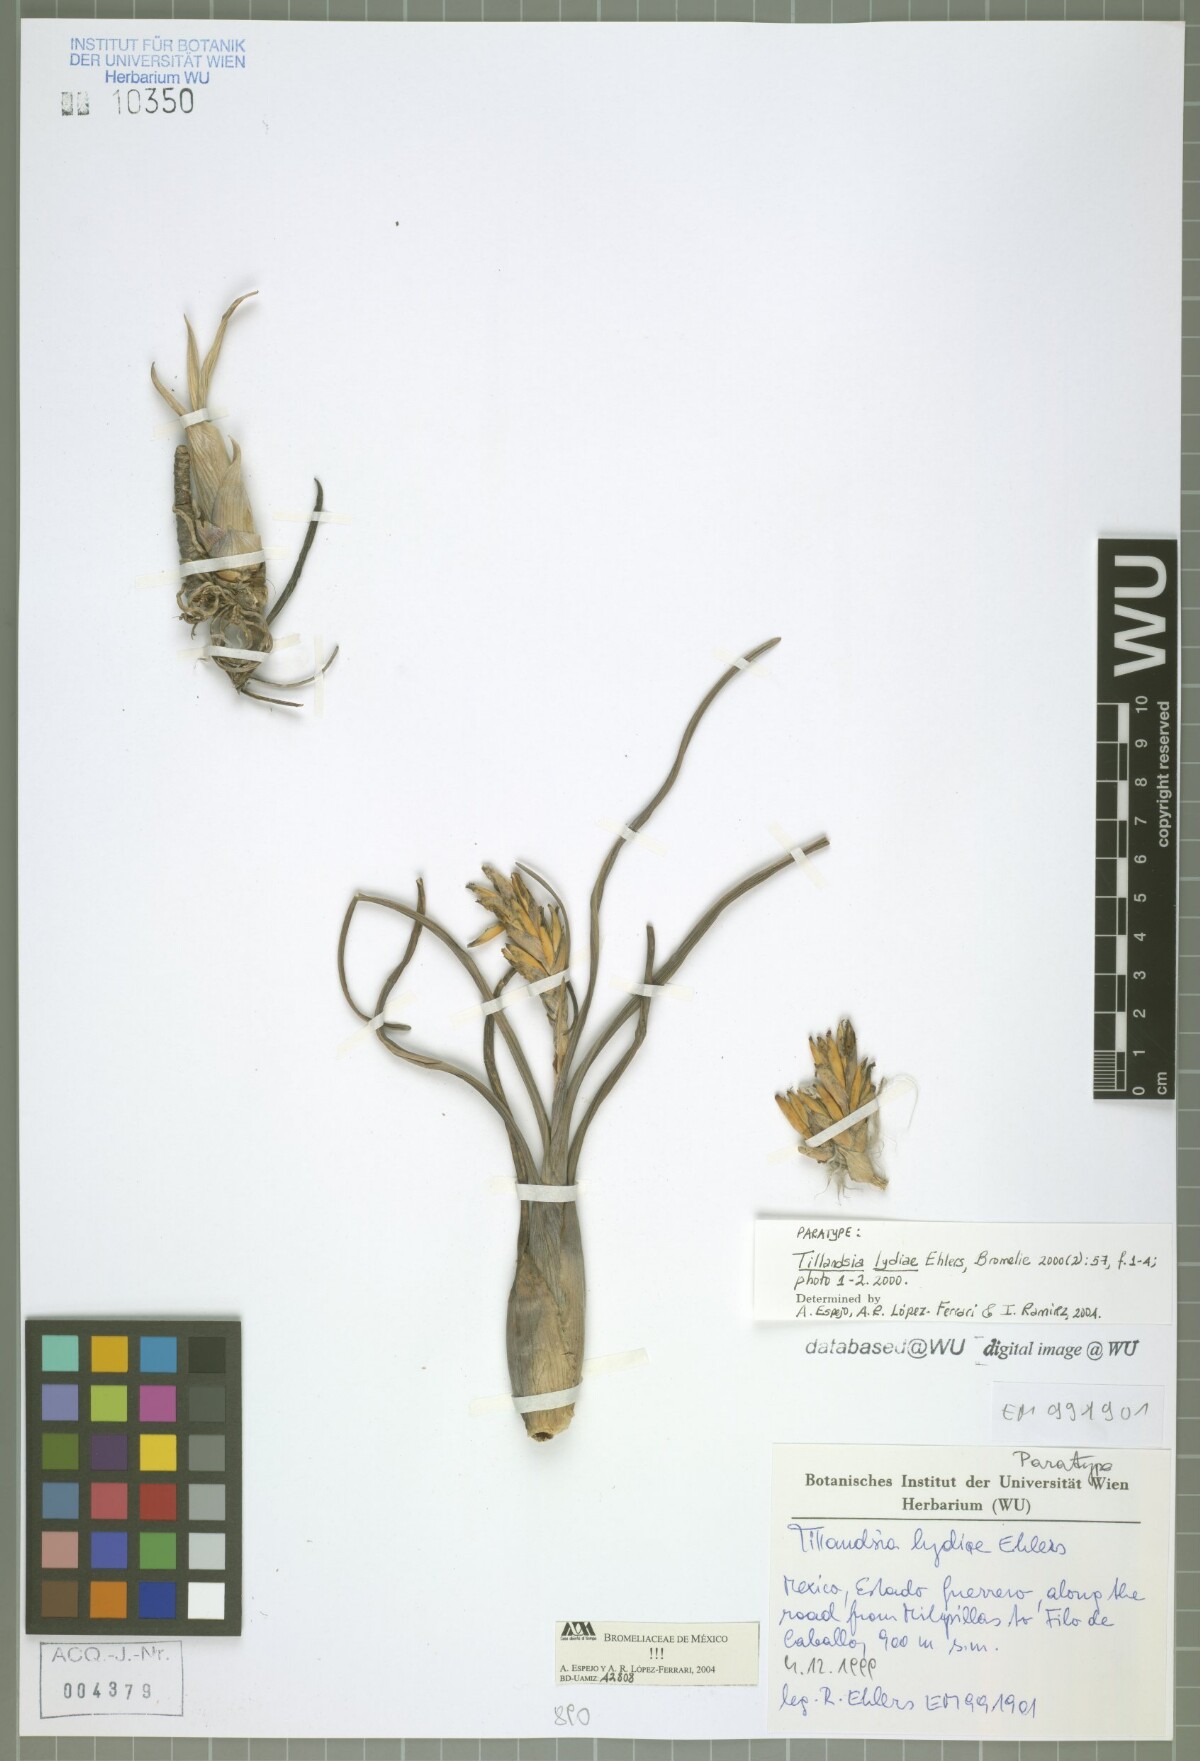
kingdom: Plantae
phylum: Tracheophyta
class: Liliopsida
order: Poales
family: Bromeliaceae
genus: Tillandsia
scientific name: Tillandsia lydiae
